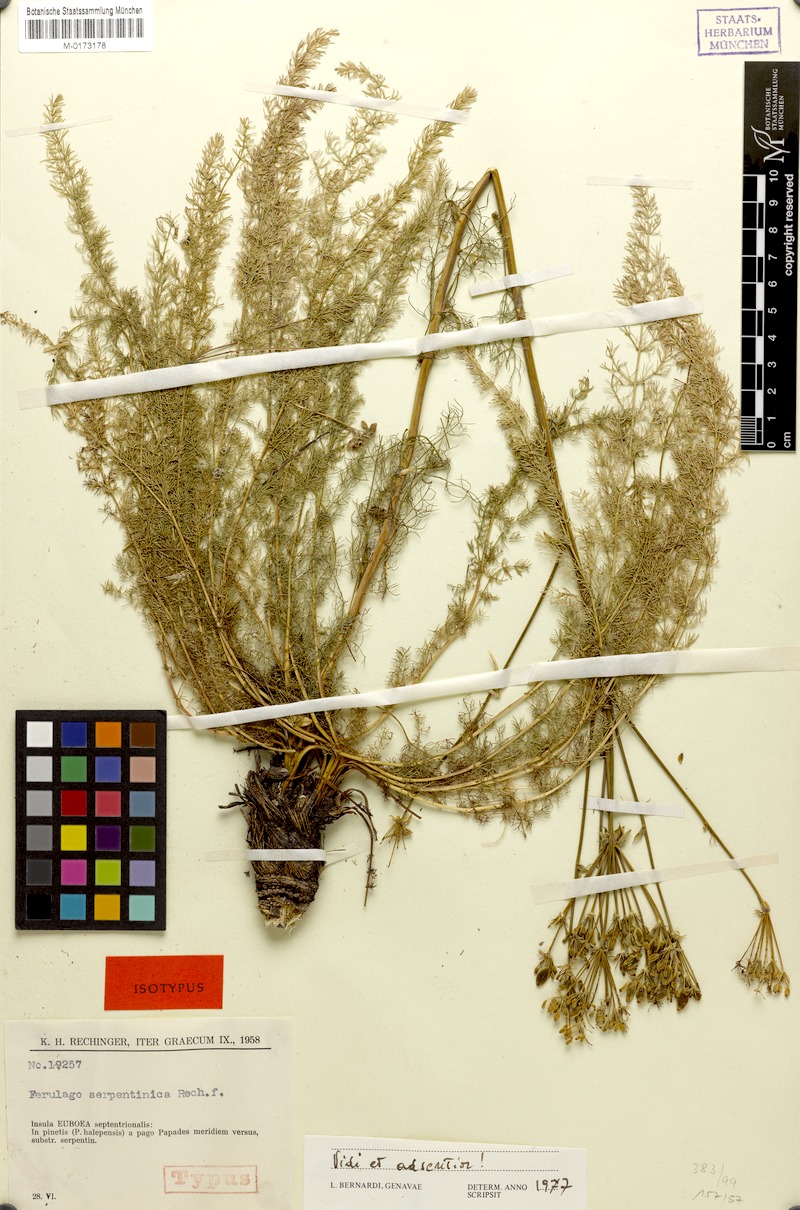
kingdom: Plantae
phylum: Tracheophyta
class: Magnoliopsida
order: Apiales
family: Apiaceae
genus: Ferulago
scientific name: Ferulago sartorii
